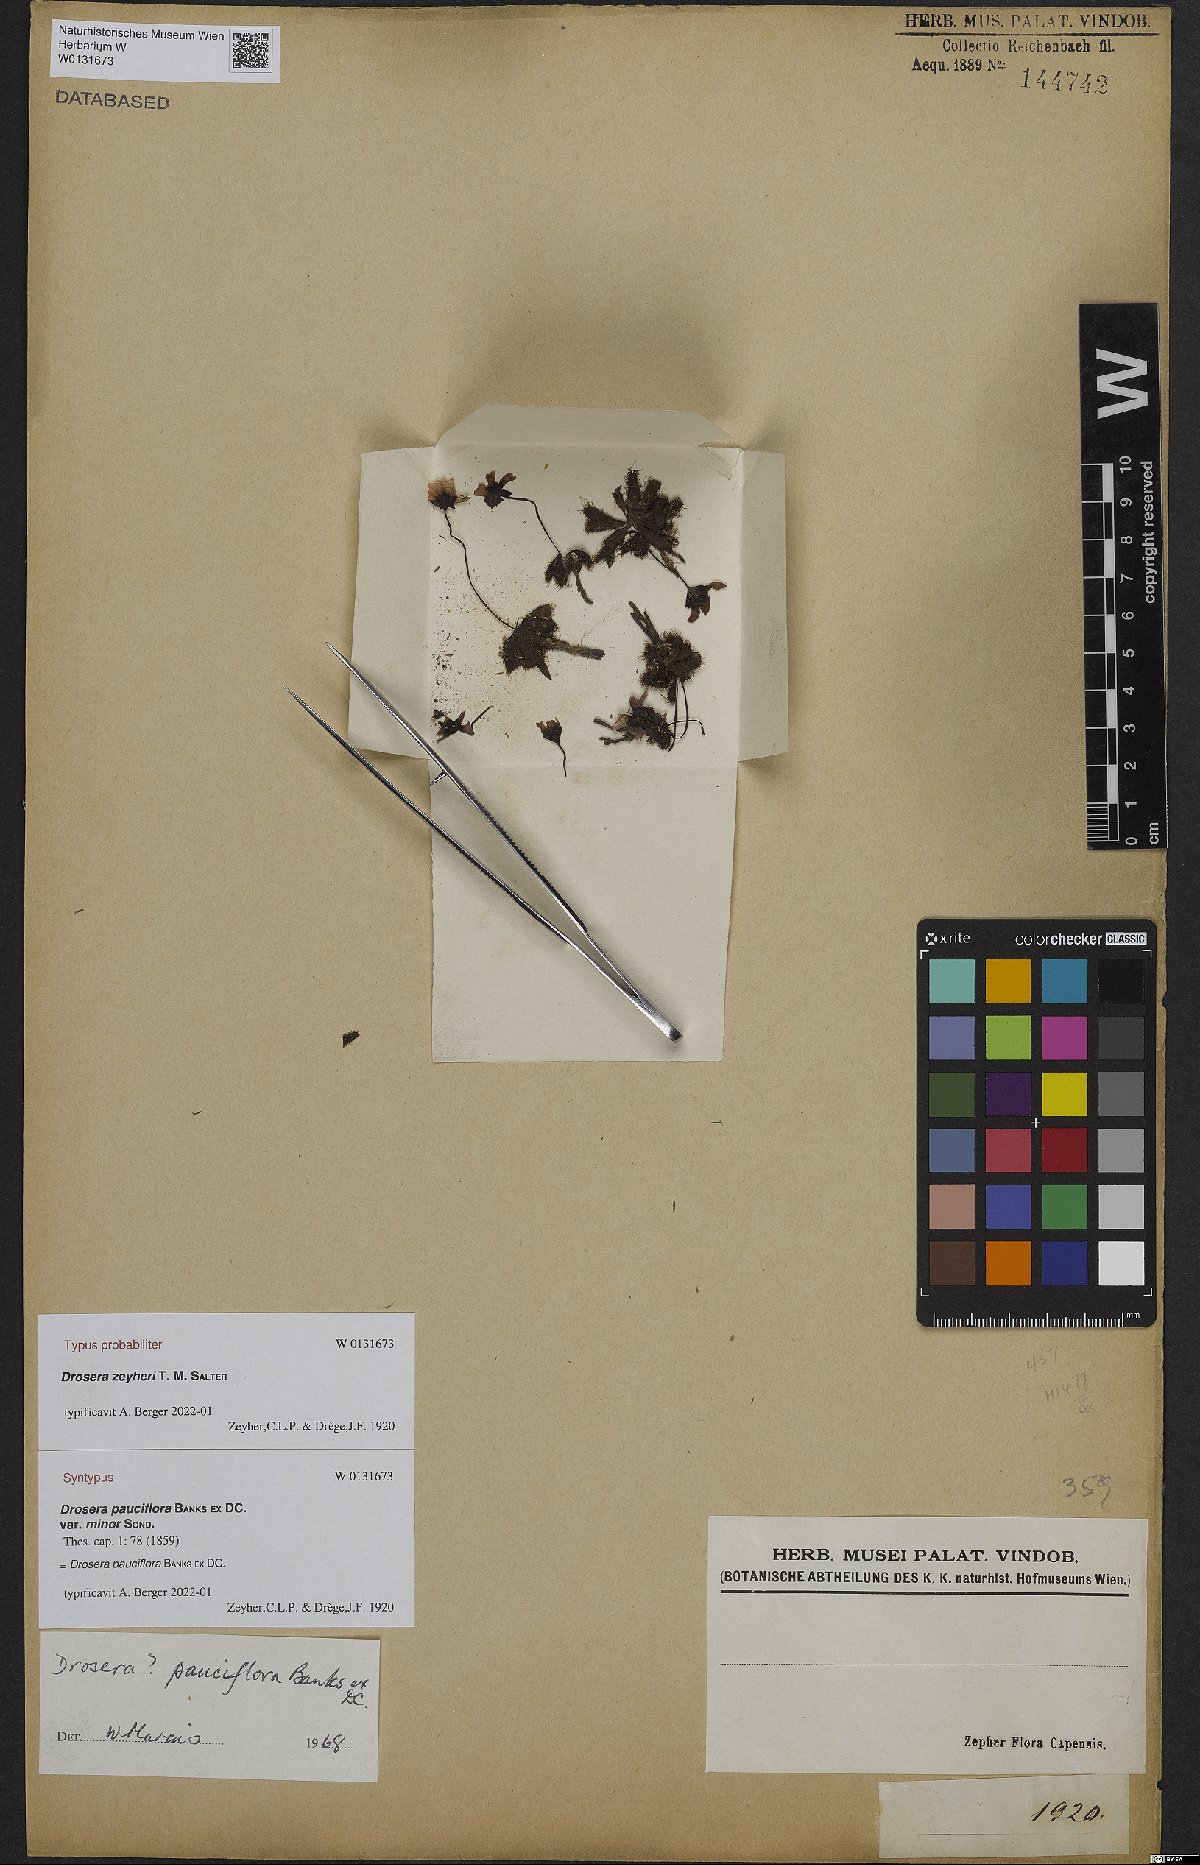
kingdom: Plantae
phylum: Tracheophyta
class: Magnoliopsida
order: Caryophyllales
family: Droseraceae
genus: Drosera
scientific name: Drosera cistiflora
